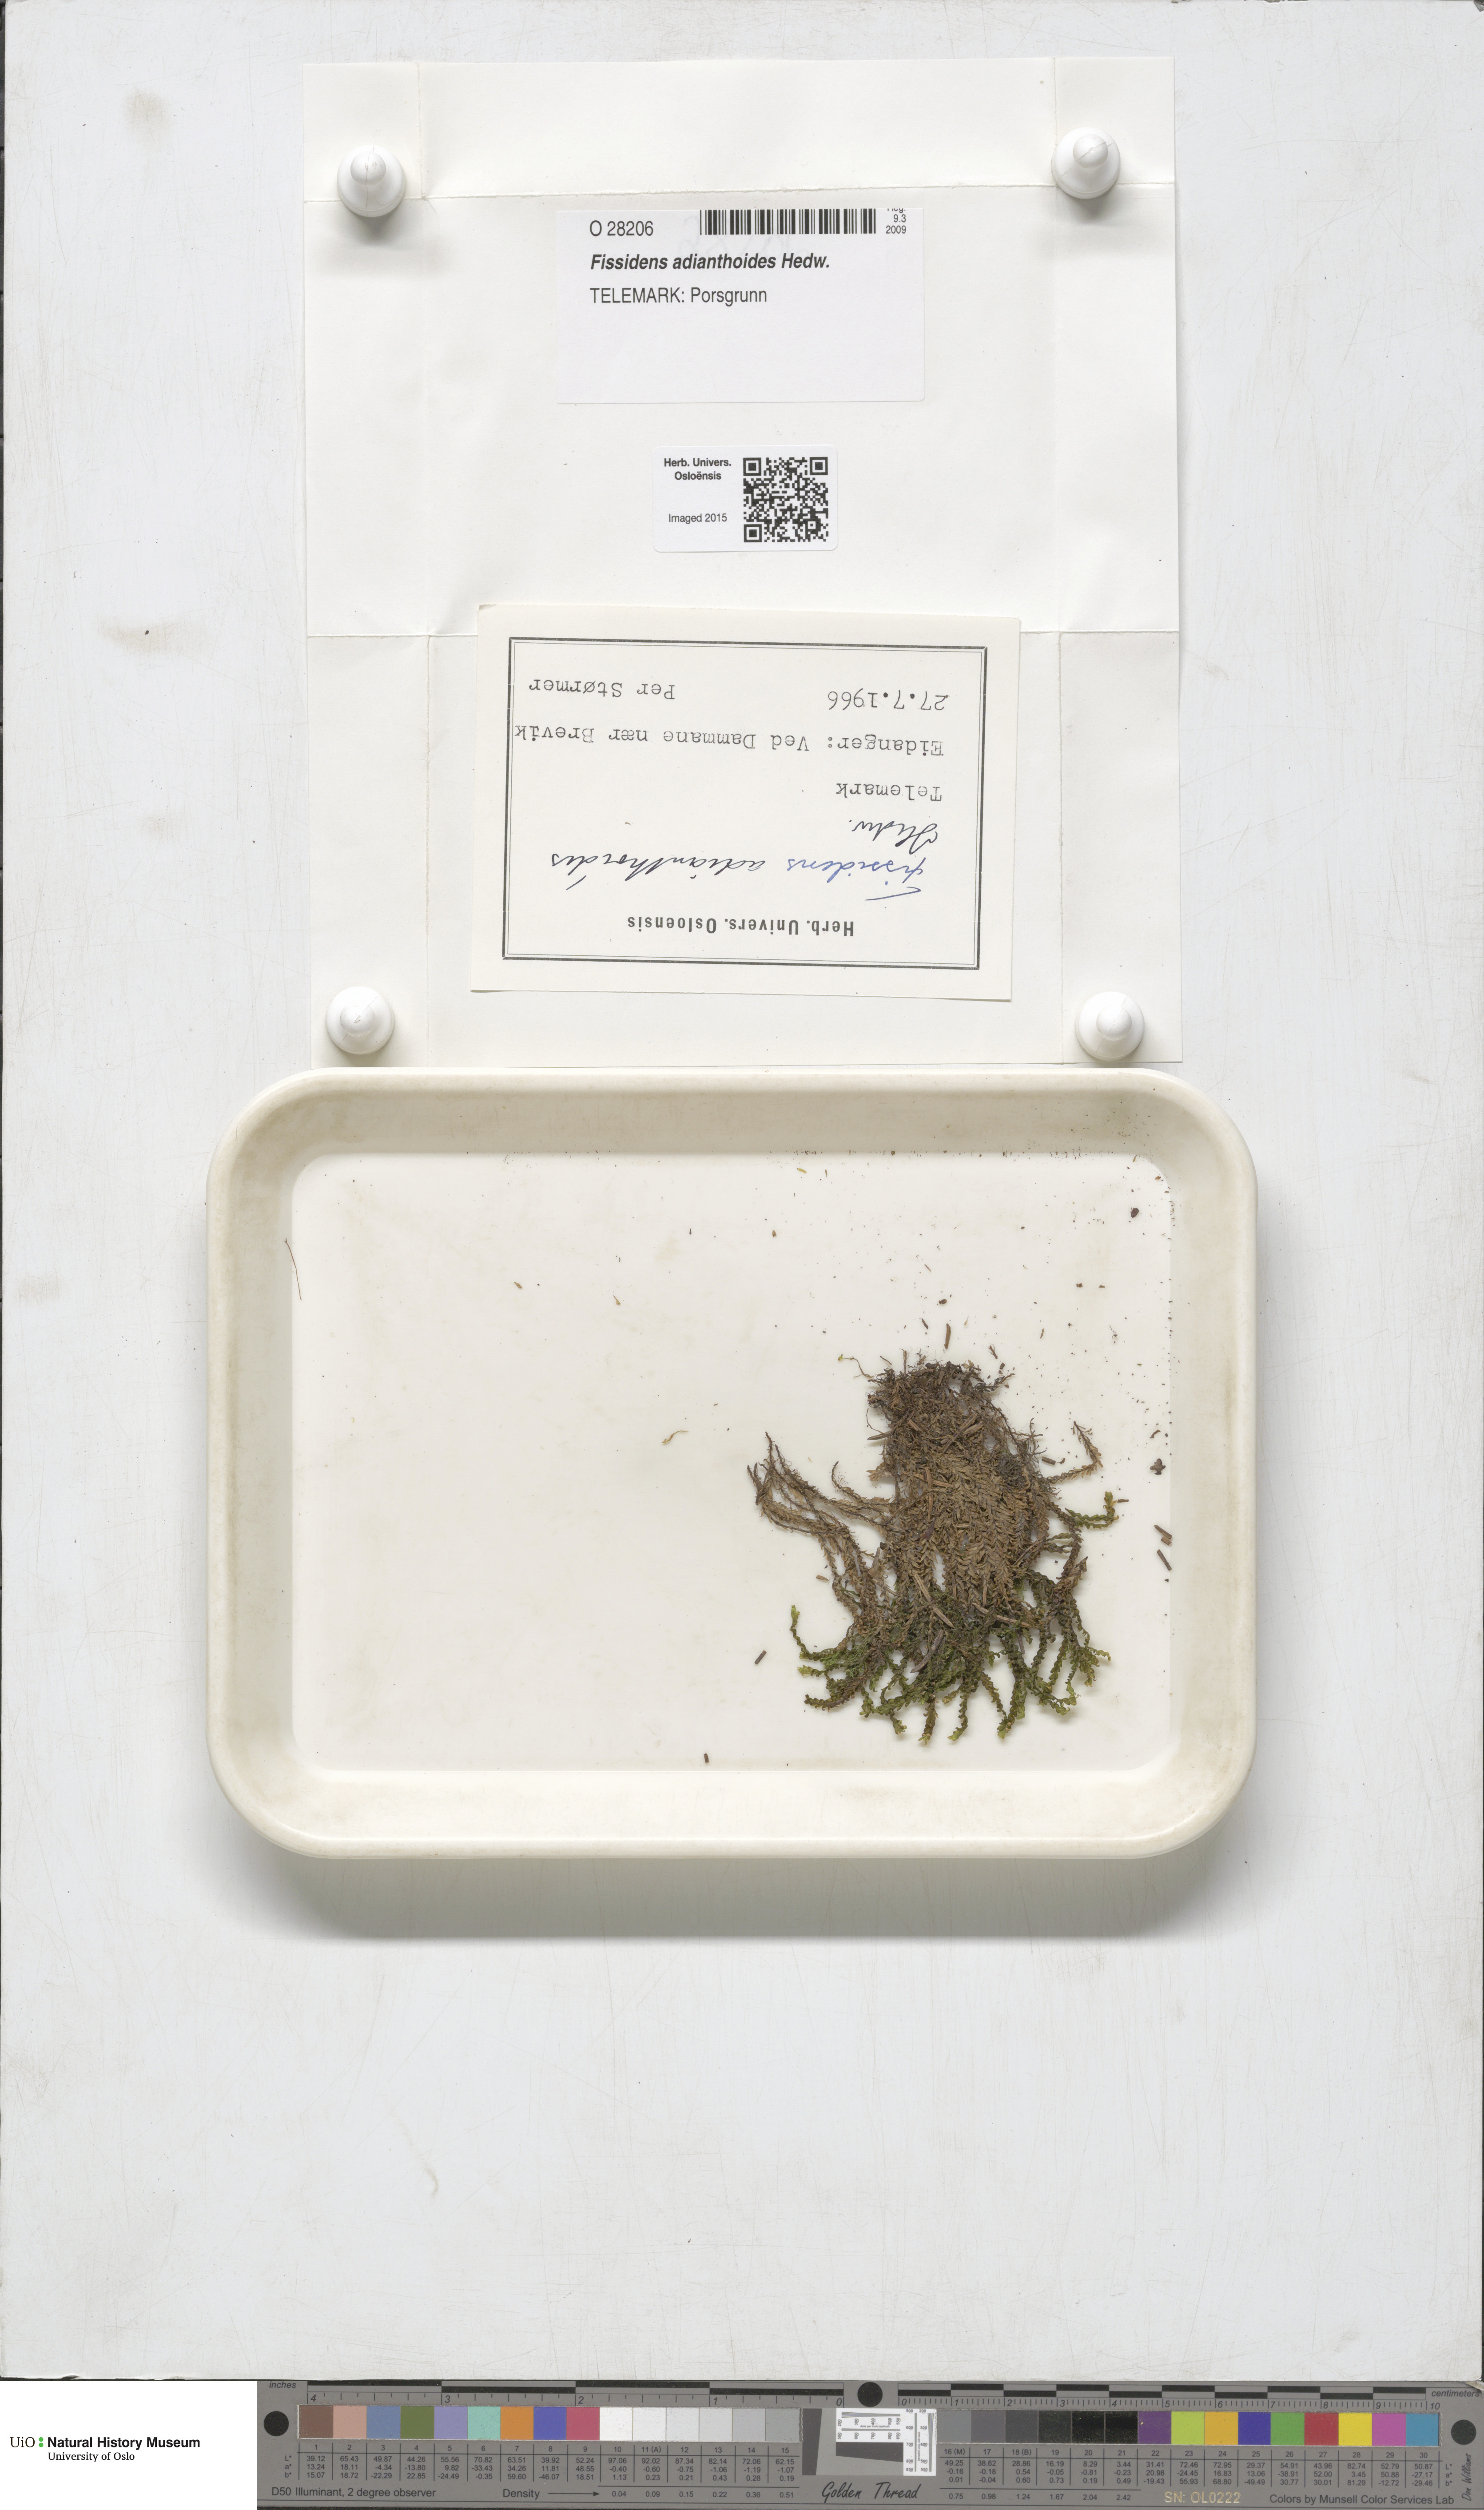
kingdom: Plantae
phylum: Bryophyta
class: Bryopsida
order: Dicranales
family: Fissidentaceae
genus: Fissidens
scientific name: Fissidens adianthoides
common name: Maidenhair pocket moss
